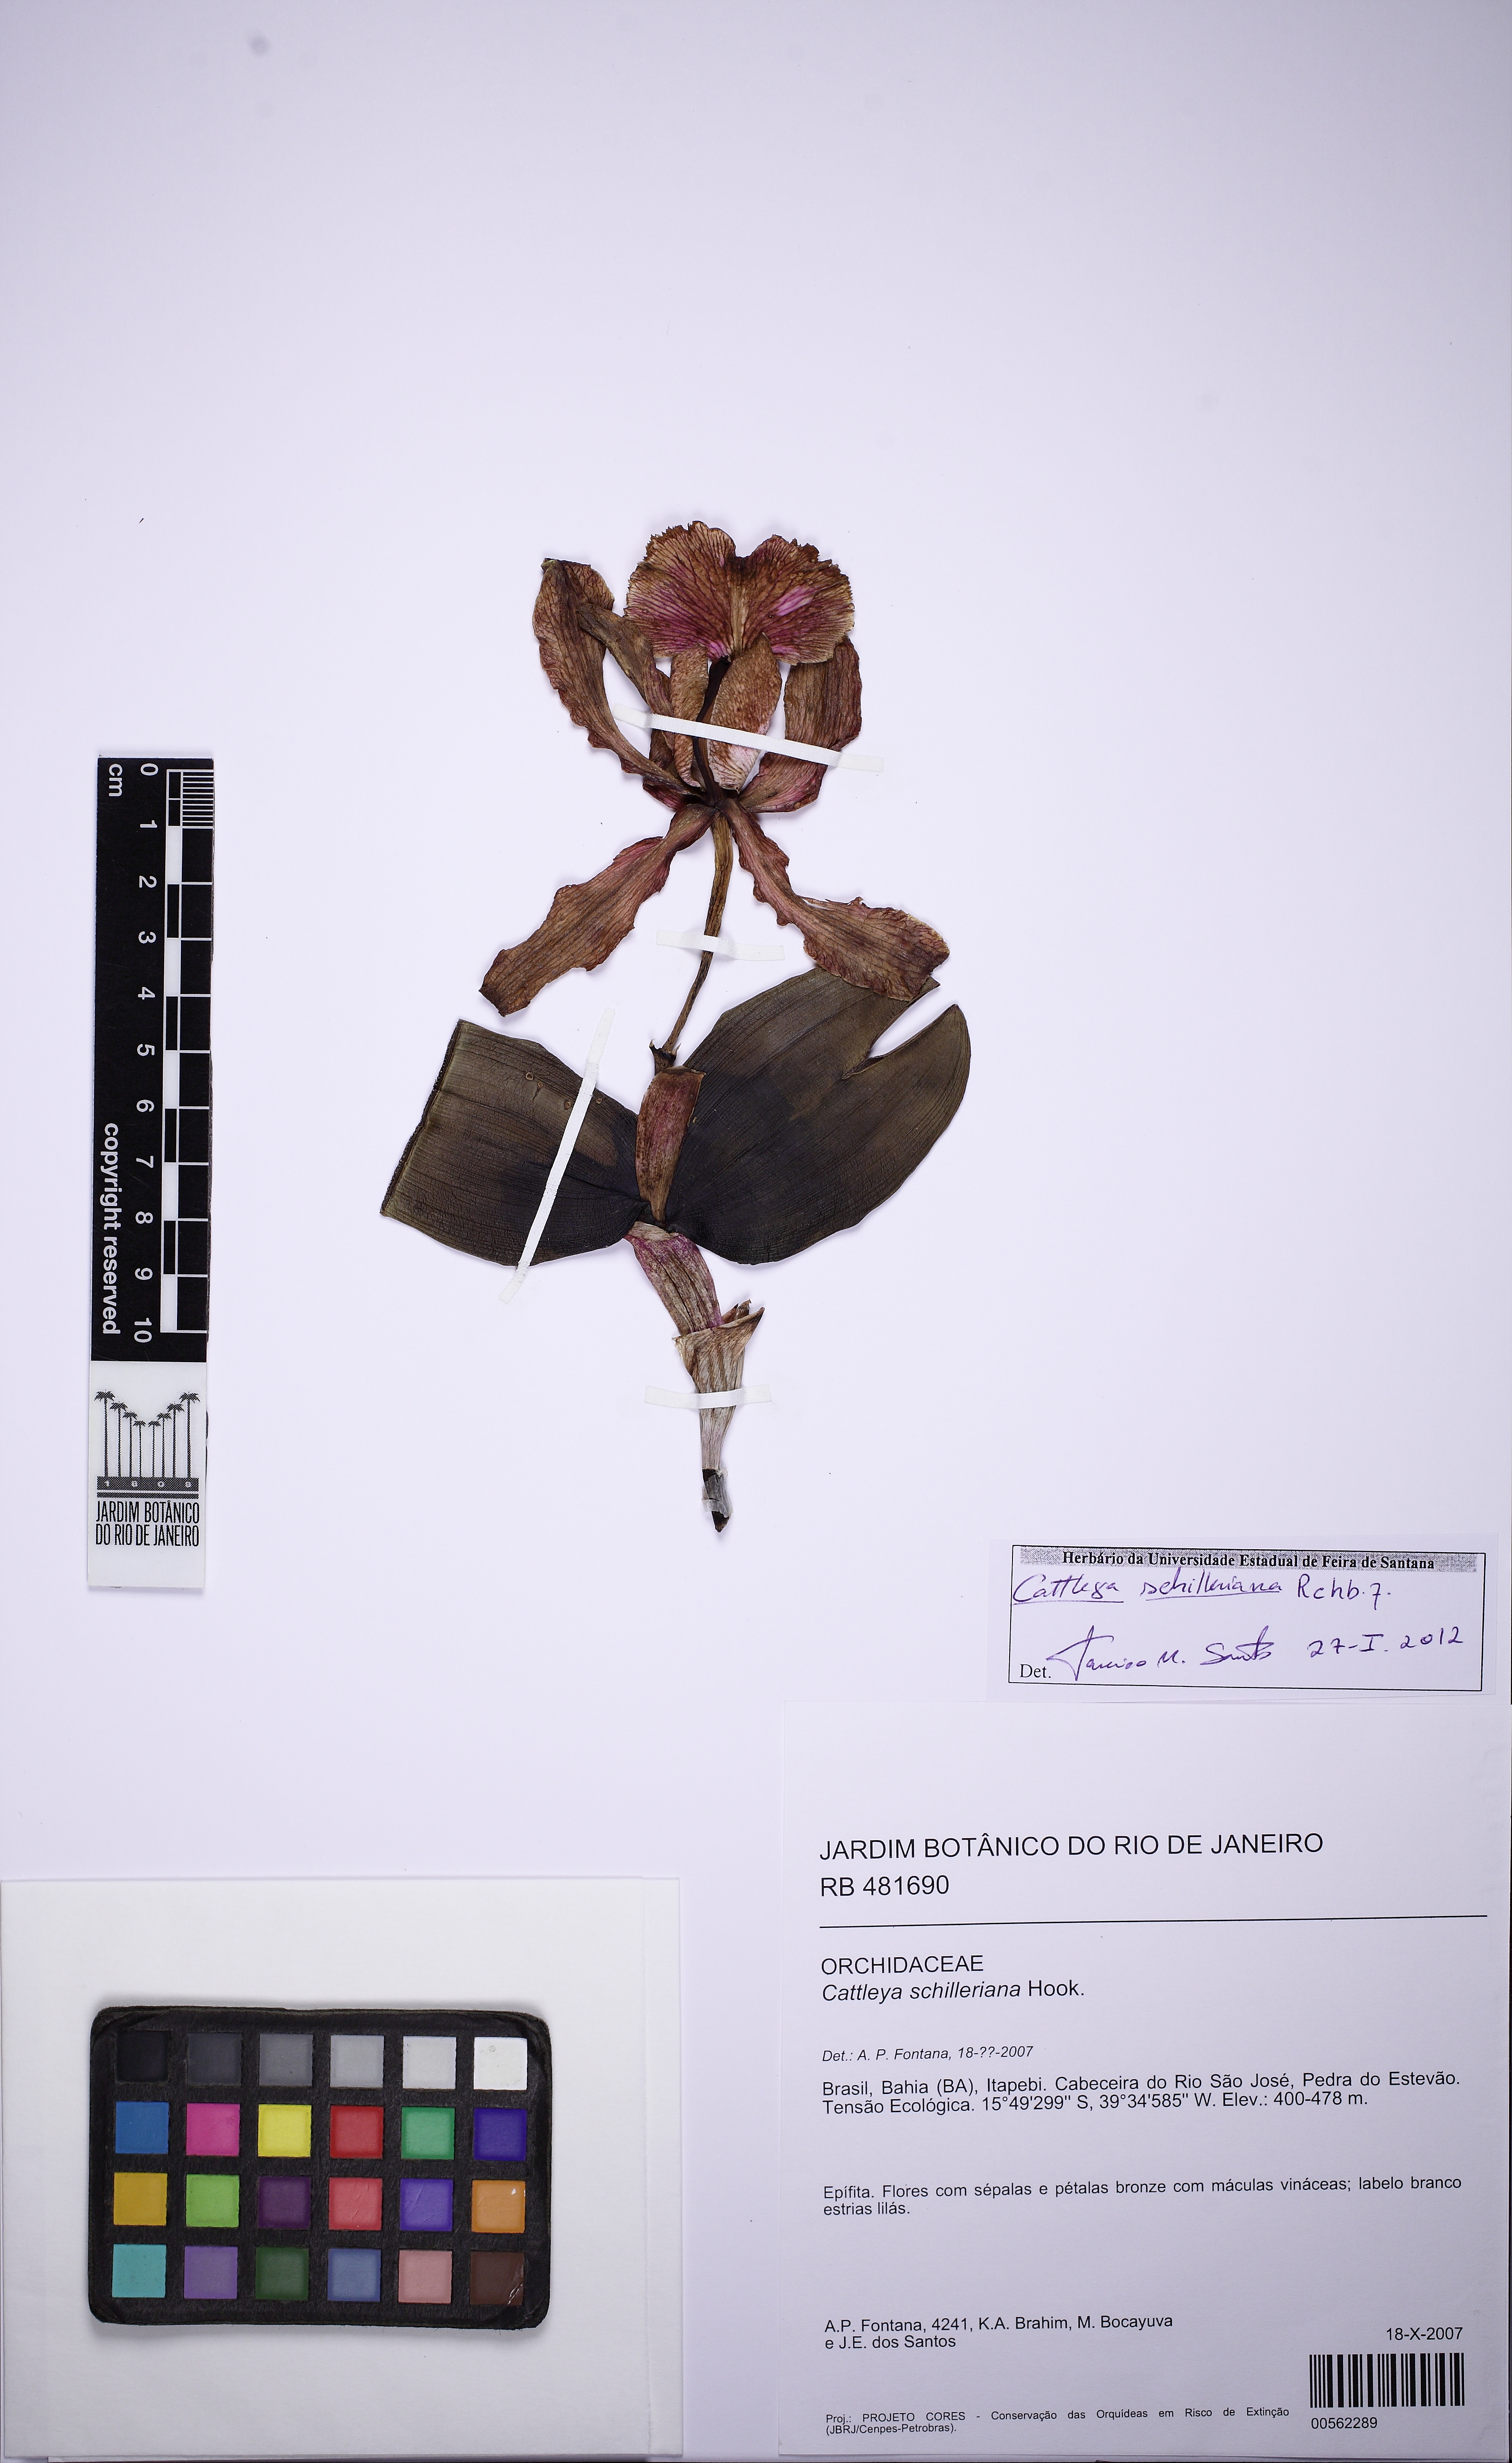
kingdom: Plantae
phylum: Tracheophyta
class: Liliopsida
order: Asparagales
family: Orchidaceae
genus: Cattleya
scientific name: Cattleya schilleriana
